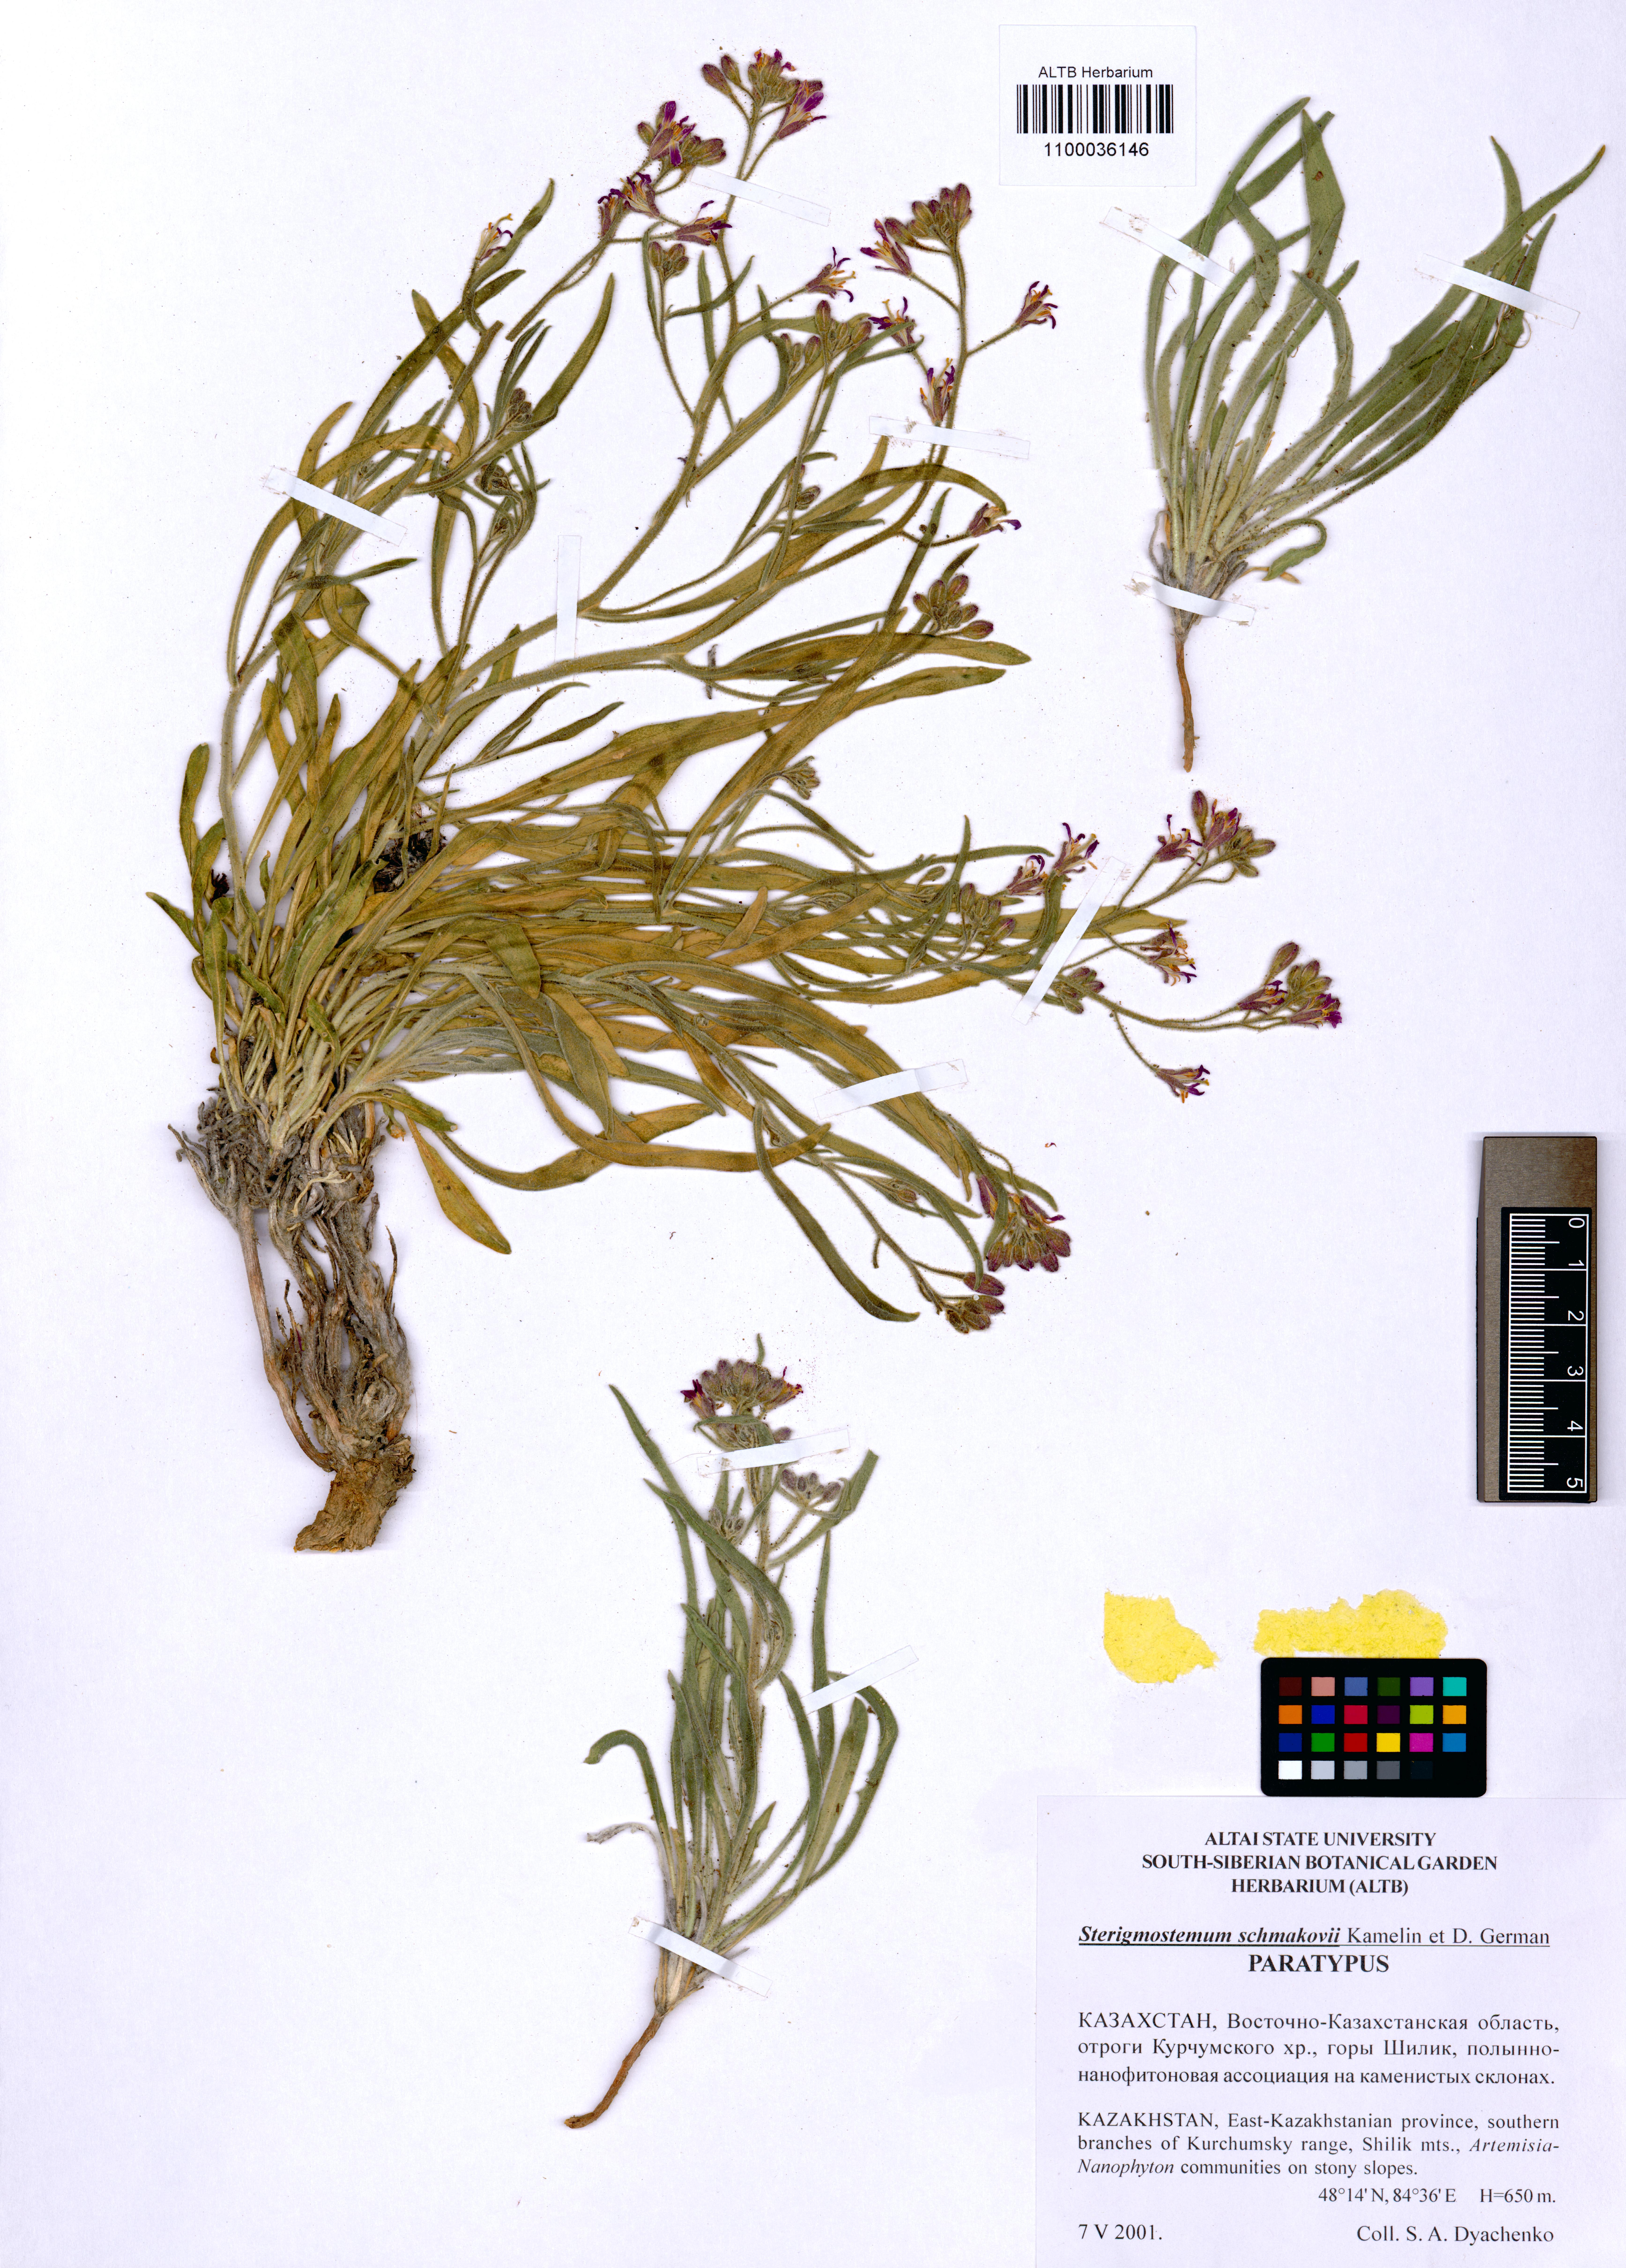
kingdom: Plantae
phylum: Tracheophyta
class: Magnoliopsida
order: Brassicales
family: Brassicaceae
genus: Sterigmostemum
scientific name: Sterigmostemum schmakovii
